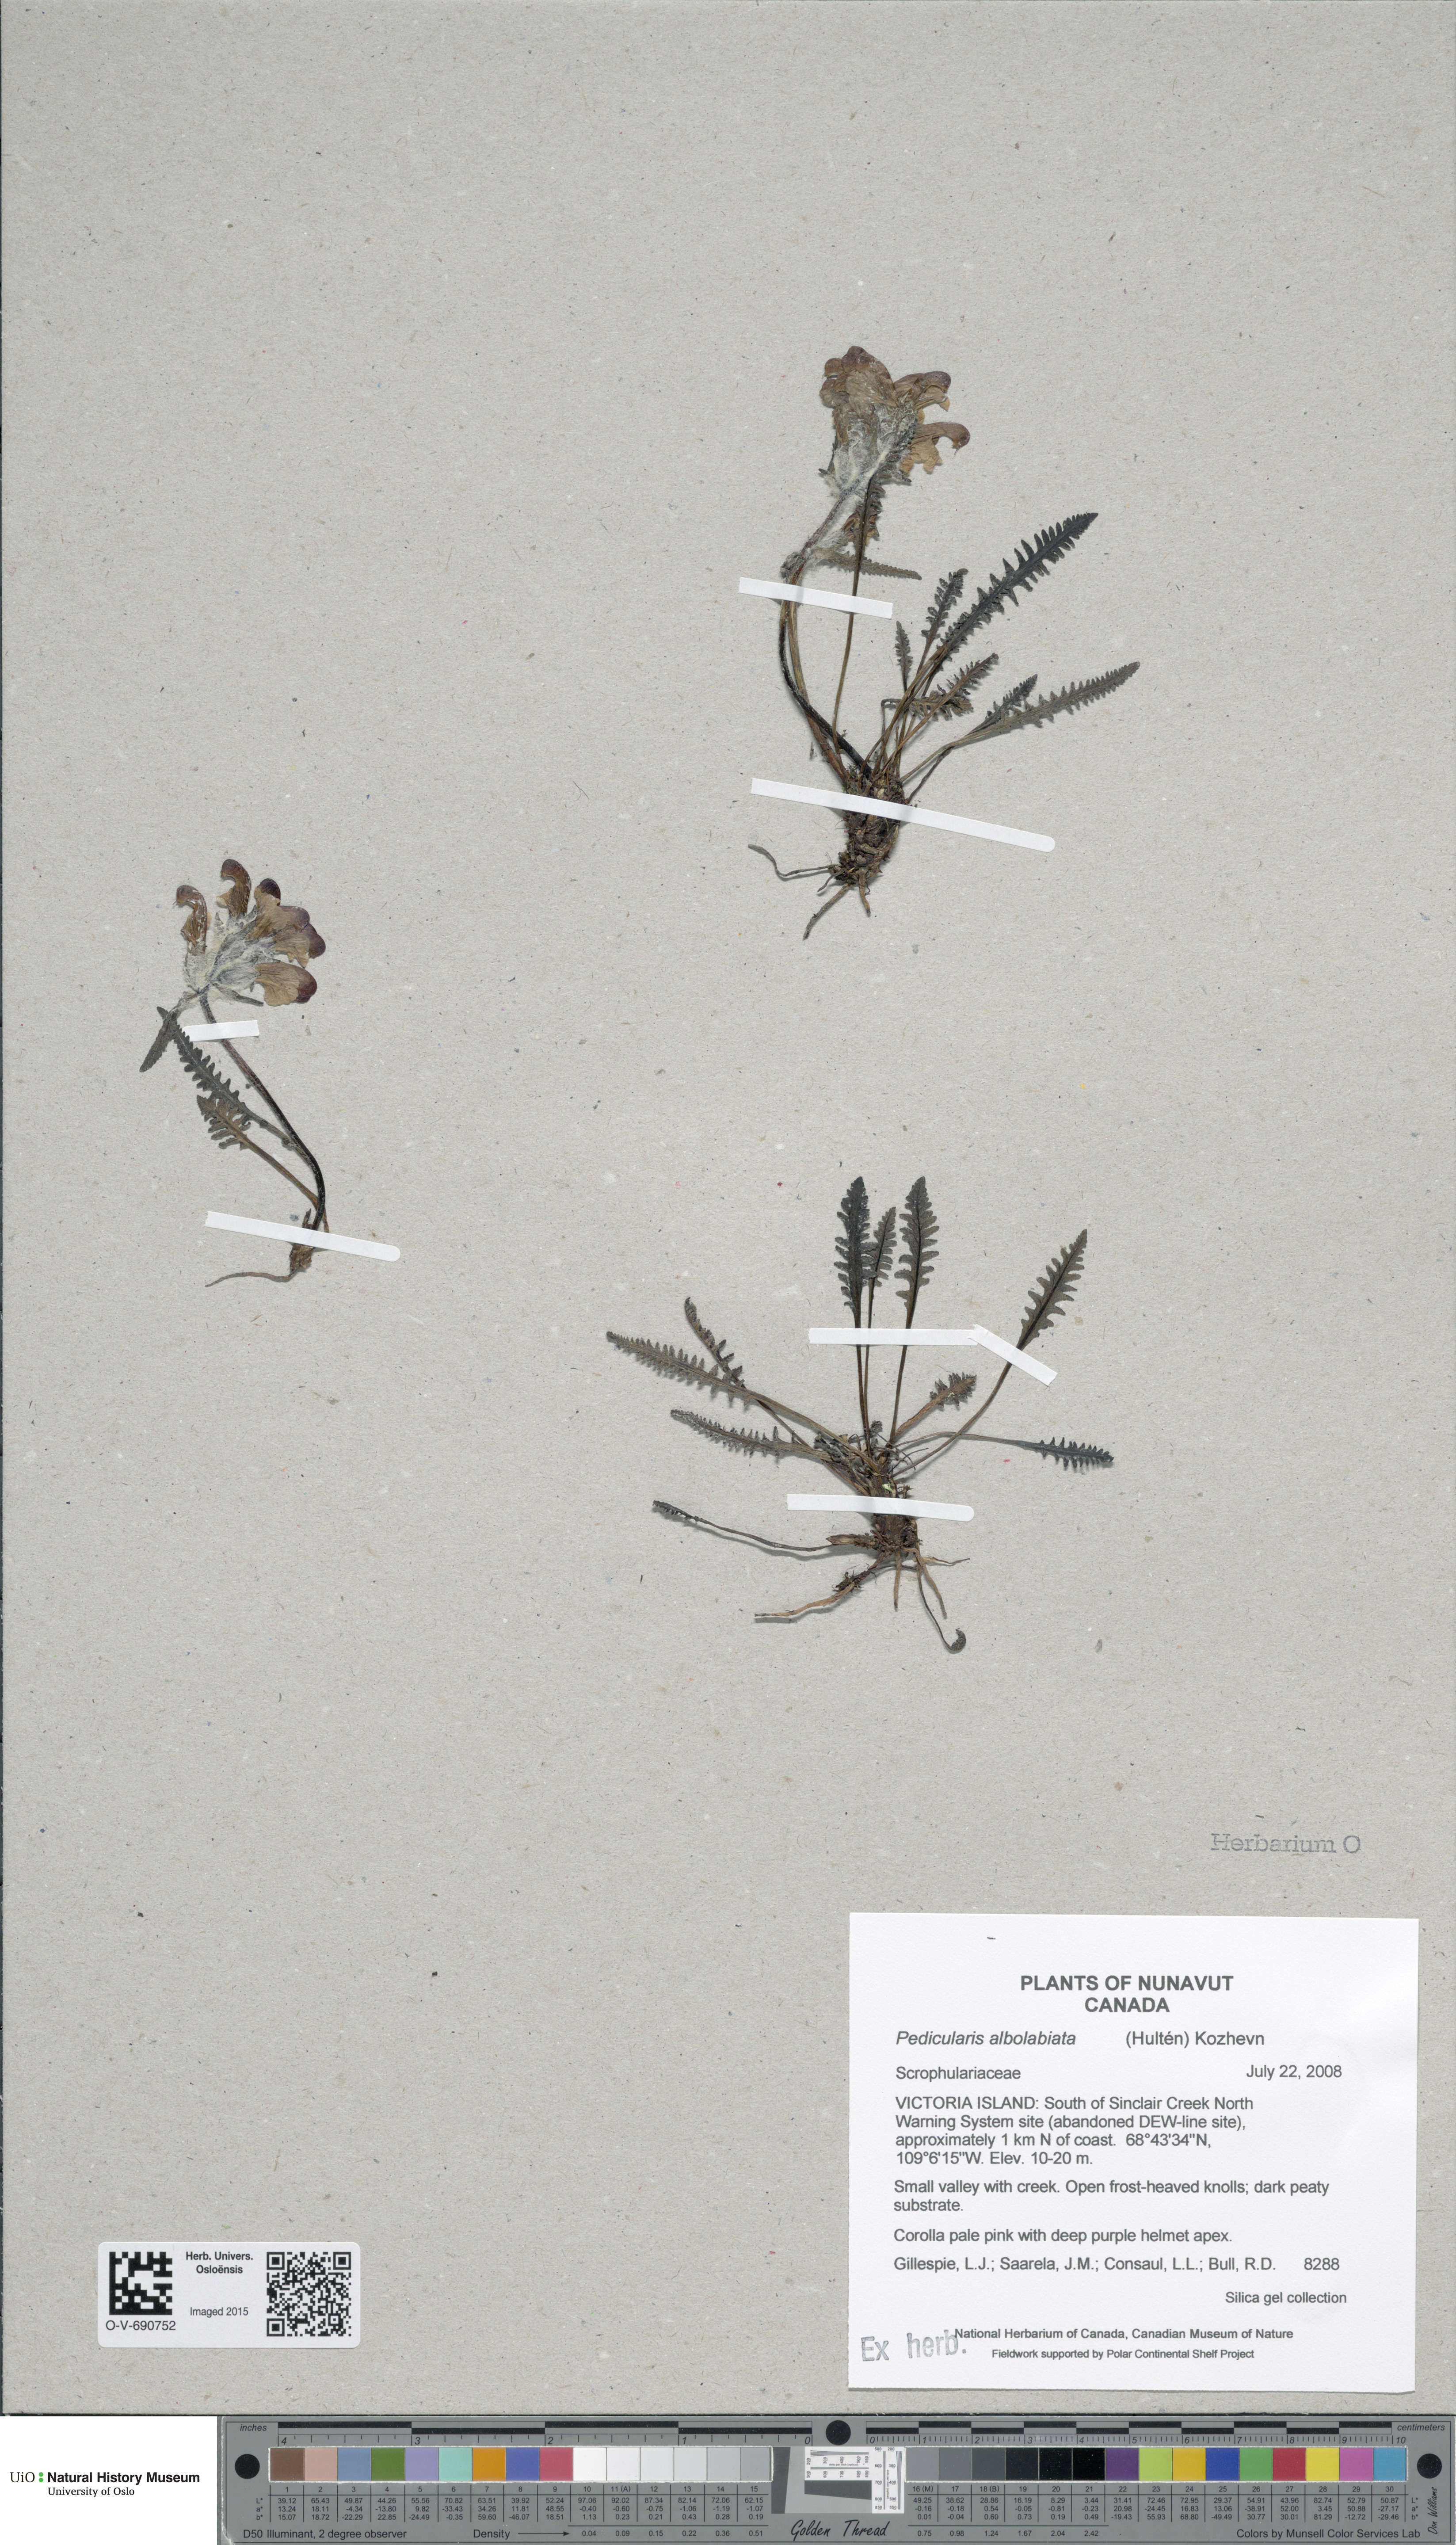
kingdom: Plantae
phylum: Tracheophyta
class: Magnoliopsida
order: Lamiales
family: Orobanchaceae
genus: Pedicularis
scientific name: Pedicularis novaiae-zemliae
